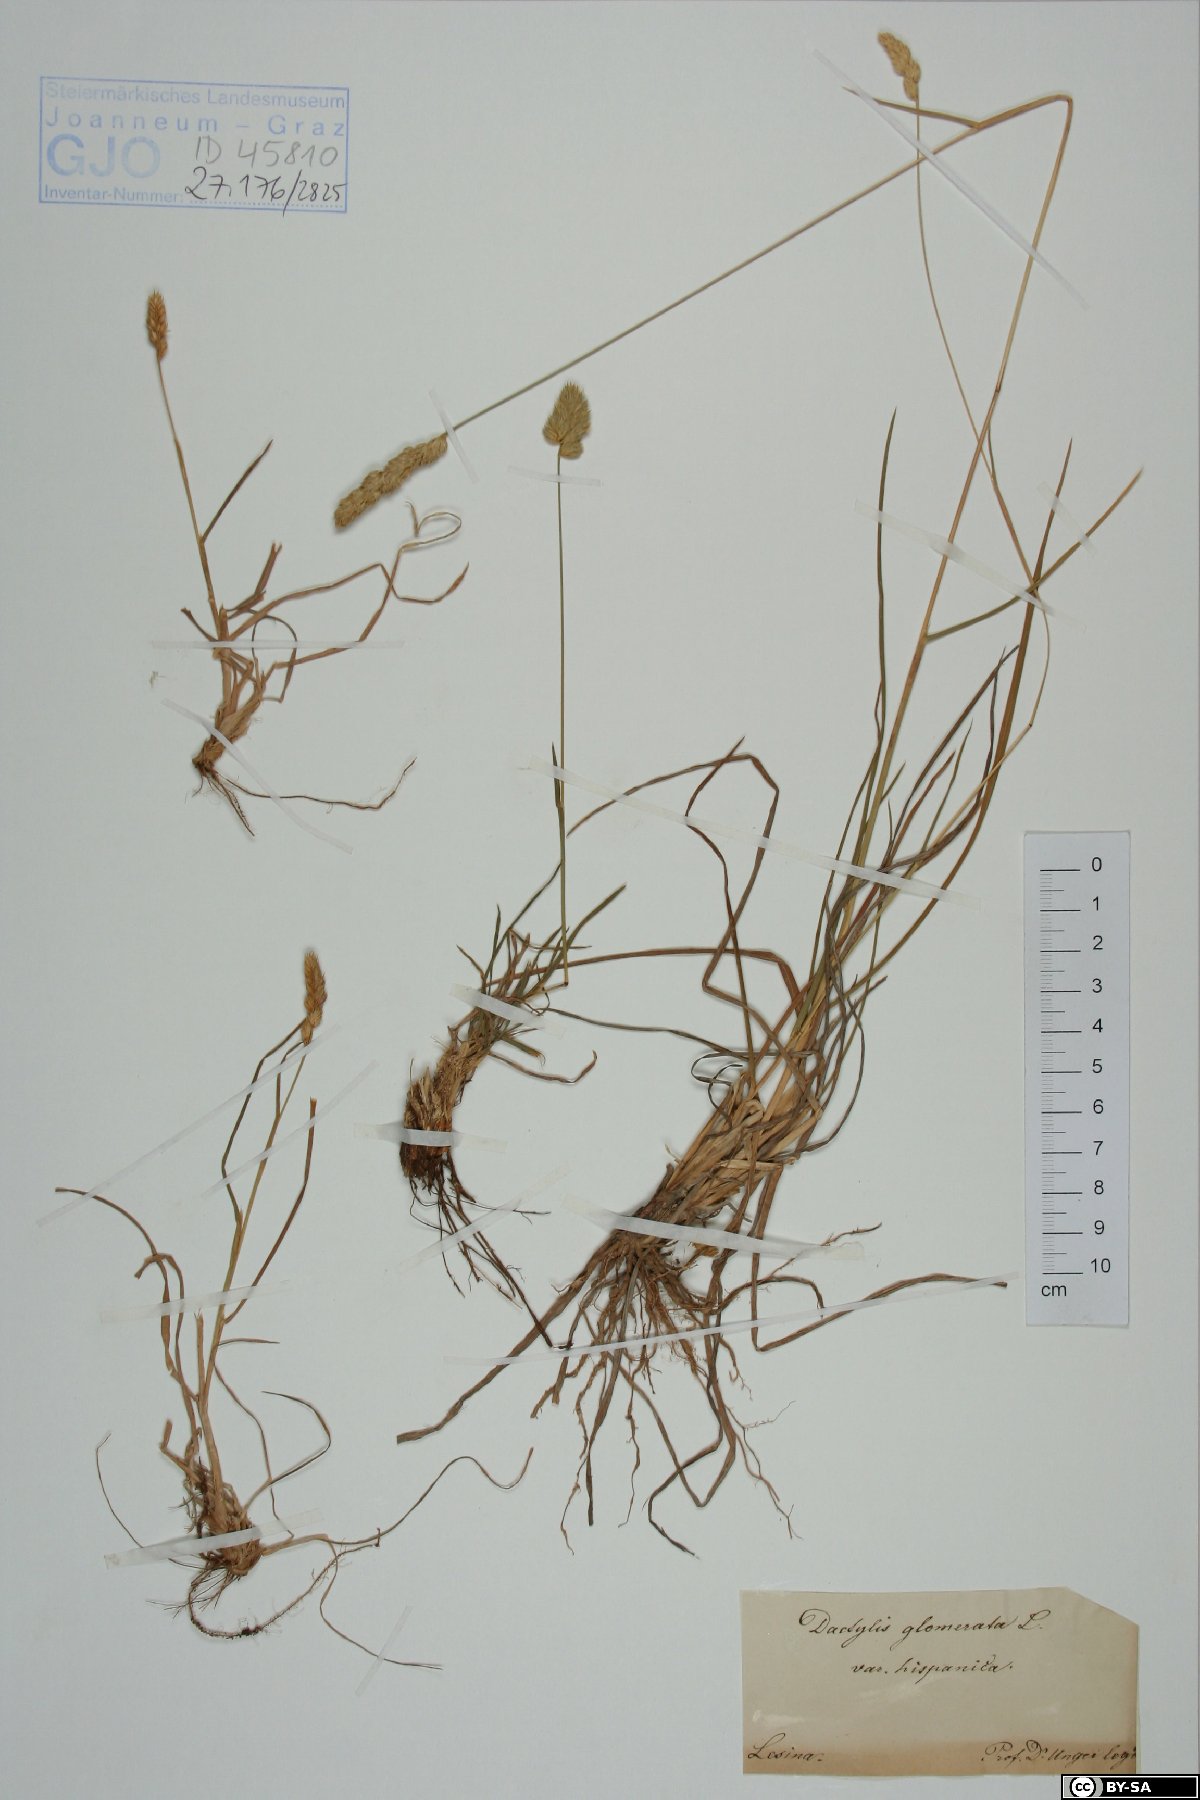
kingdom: Plantae
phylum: Tracheophyta
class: Liliopsida
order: Poales
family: Poaceae
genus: Dactylis
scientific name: Dactylis glomerata
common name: Orchardgrass
